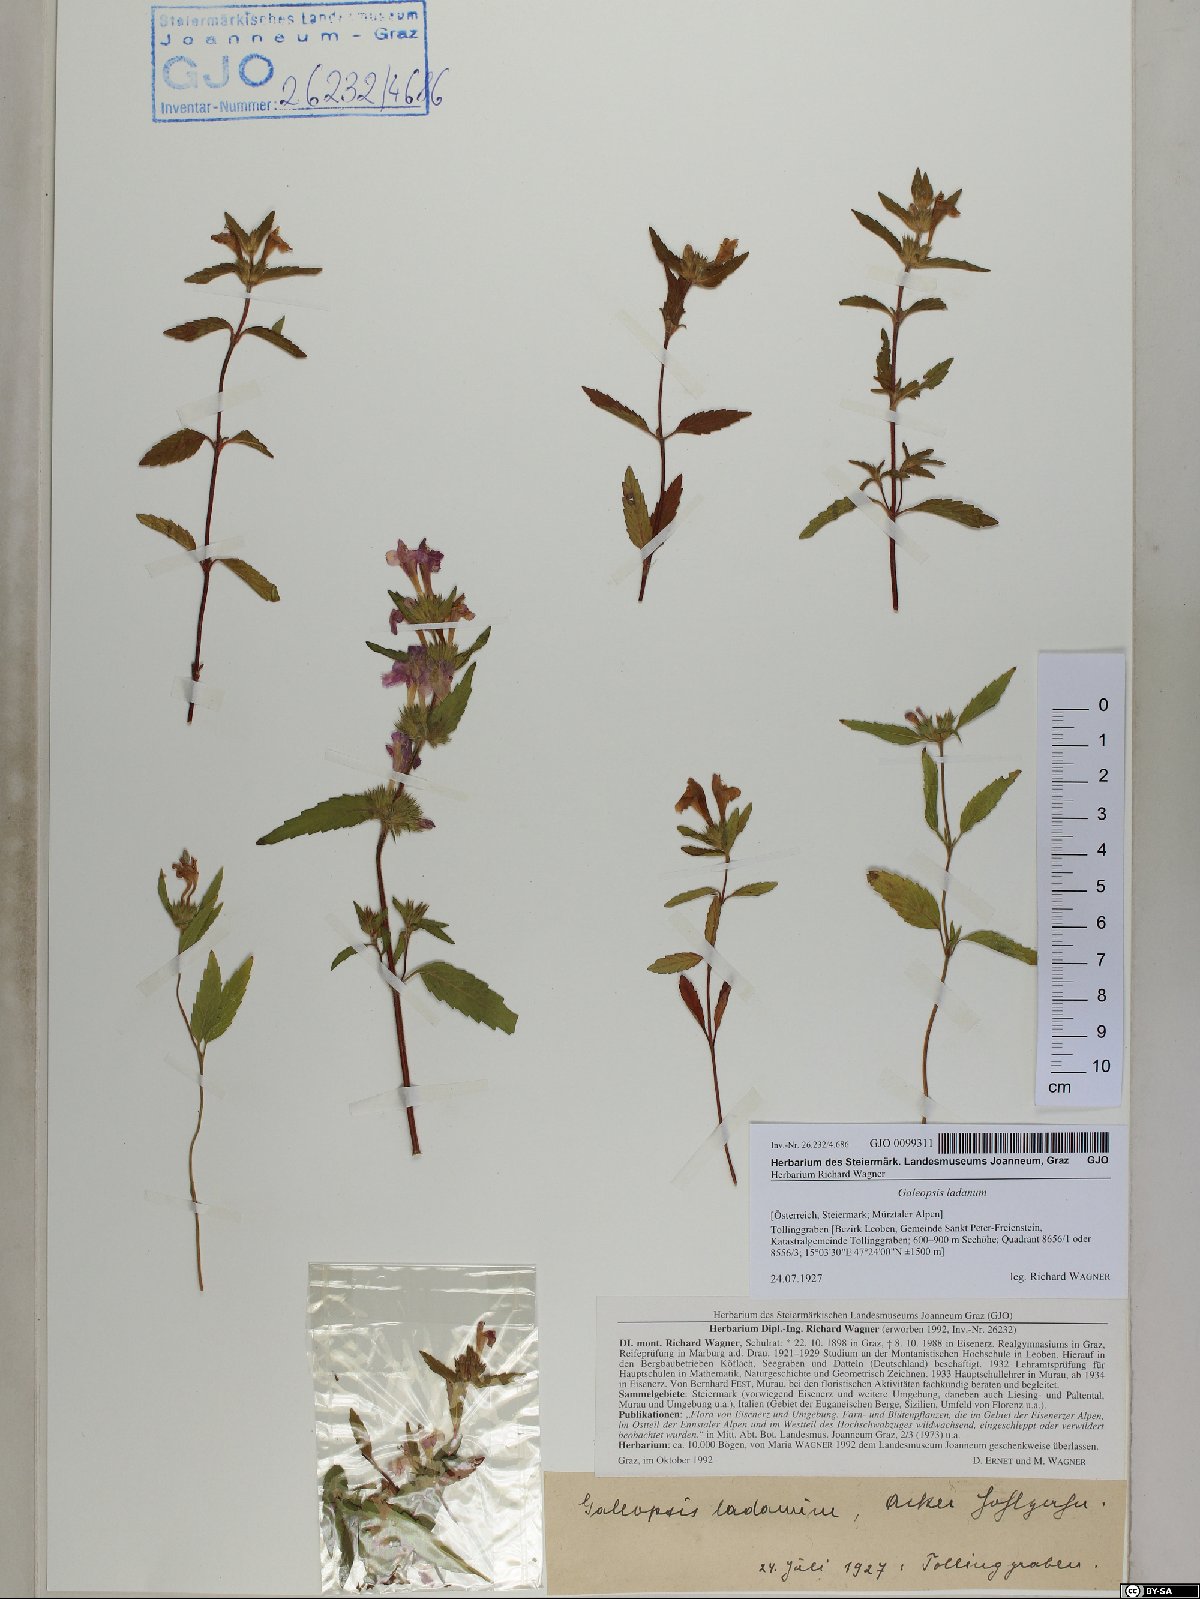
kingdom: Plantae
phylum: Tracheophyta
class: Magnoliopsida
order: Lamiales
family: Lamiaceae
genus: Galeopsis
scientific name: Galeopsis ladanum
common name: Broad-leaved hemp-nettle
